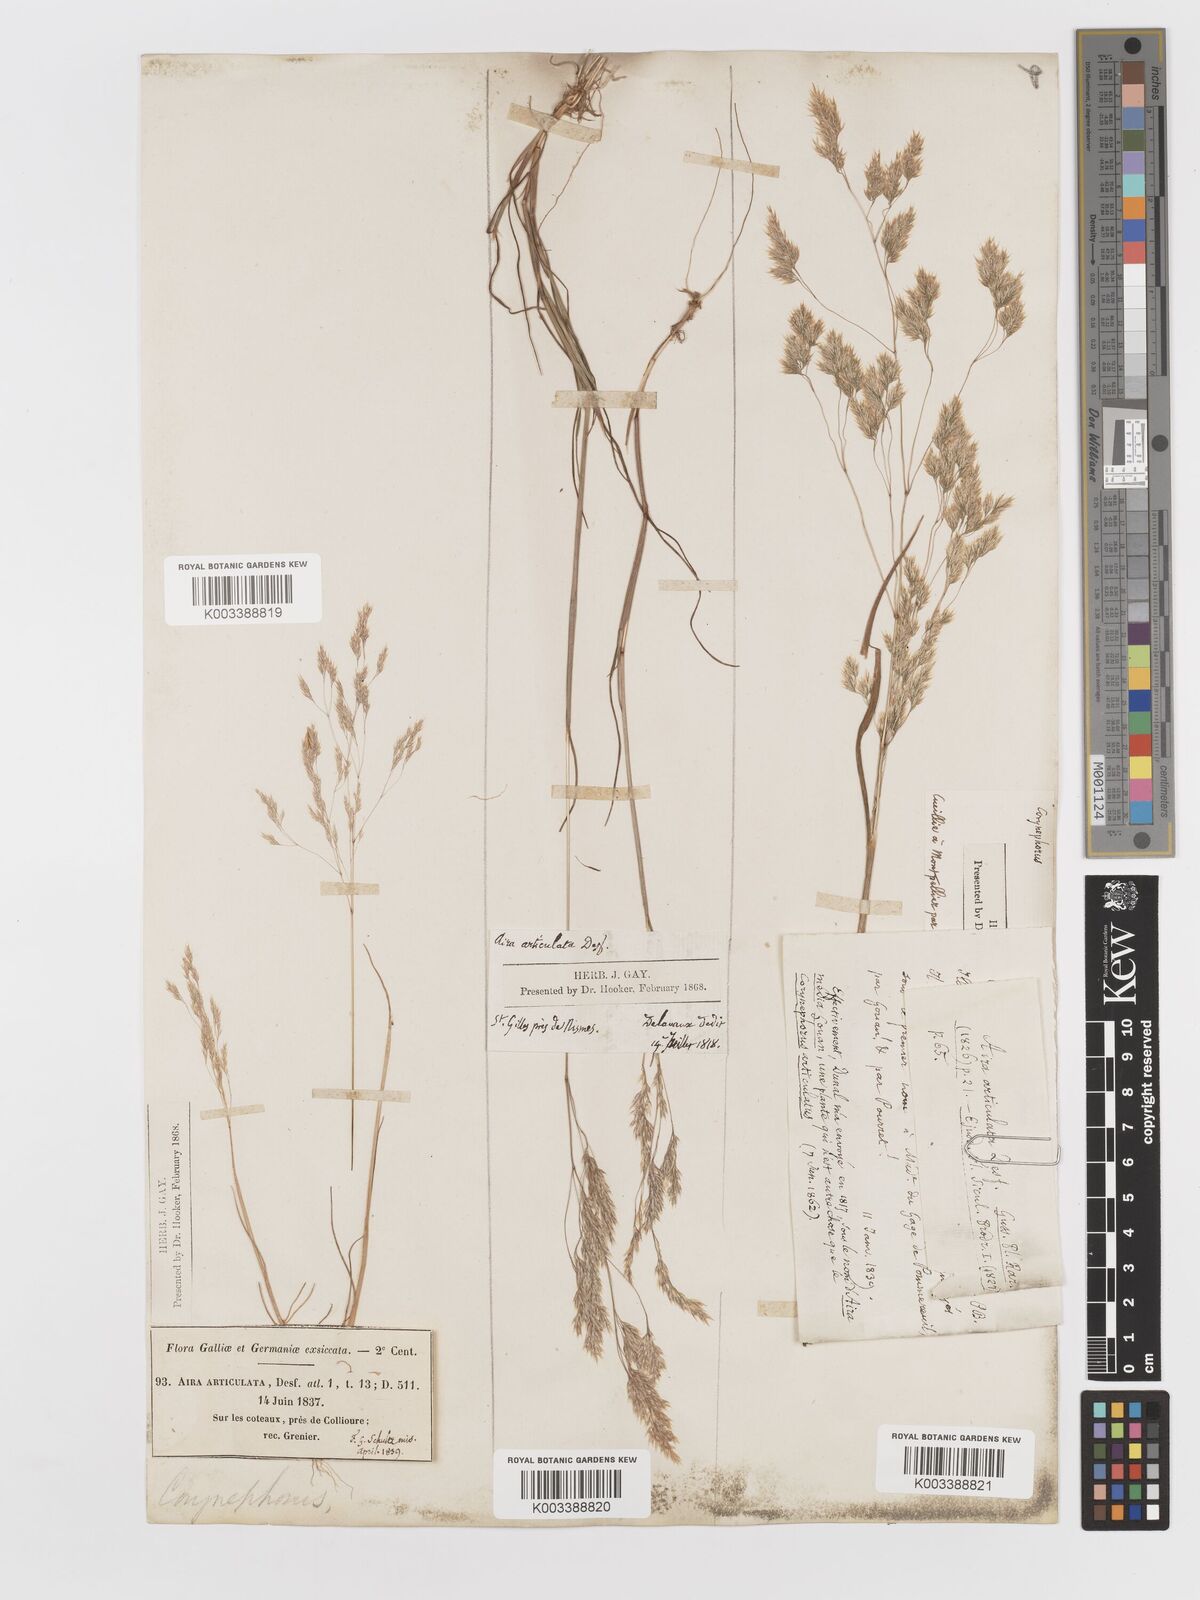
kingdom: Plantae
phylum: Tracheophyta
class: Liliopsida
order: Poales
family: Poaceae
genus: Corynephorus
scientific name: Corynephorus divaricatus
